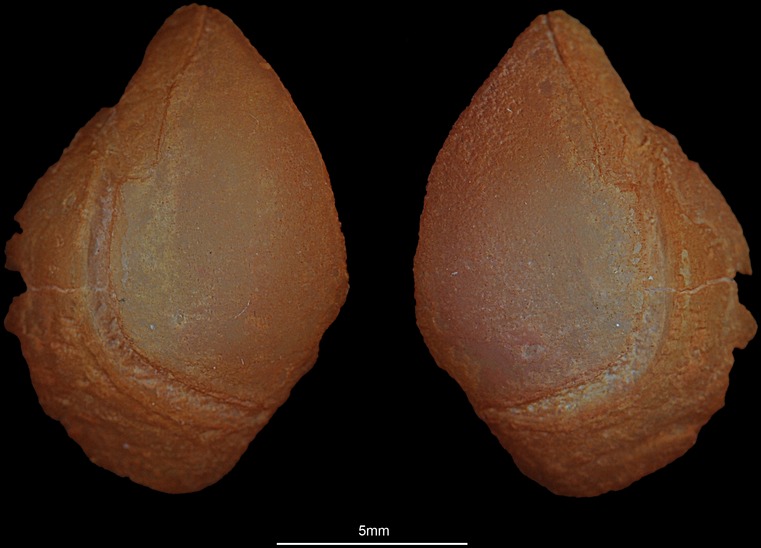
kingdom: Animalia
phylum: Chordata
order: Perciformes
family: Haemulidae
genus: Pomadasys
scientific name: Pomadasys commersonnii
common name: Smallspotted grunter
